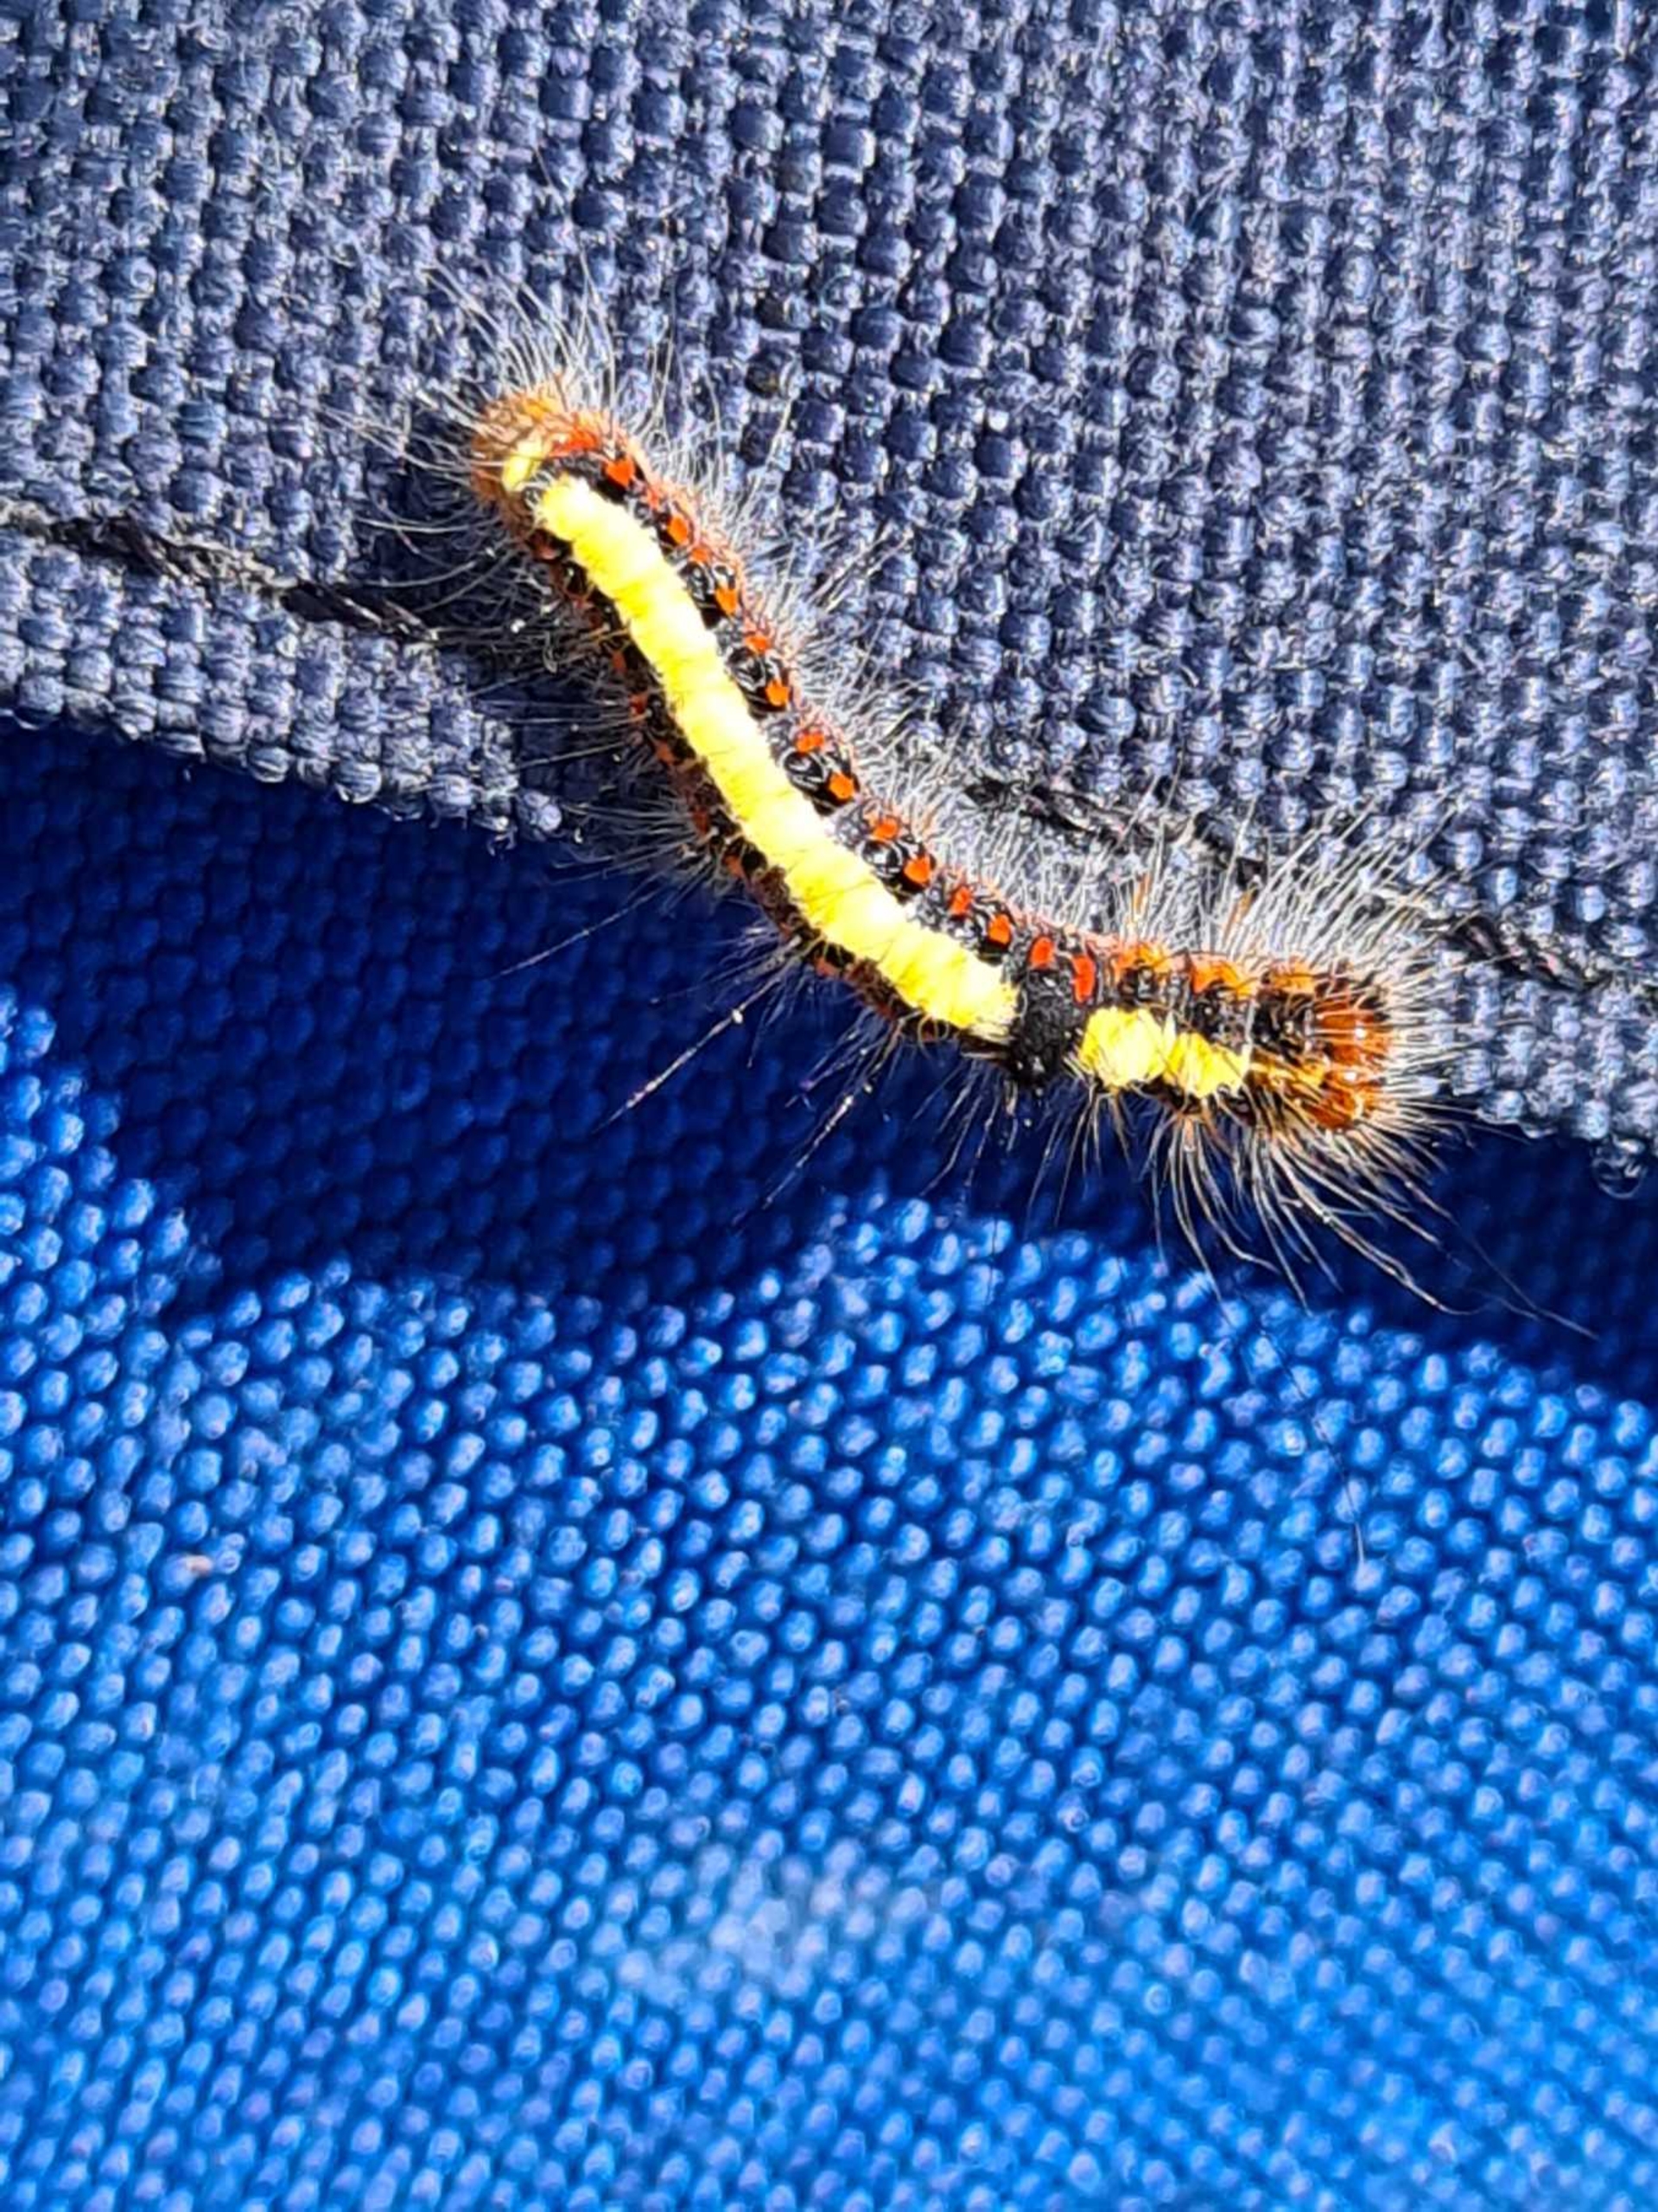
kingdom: Animalia
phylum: Arthropoda
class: Insecta
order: Lepidoptera
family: Noctuidae
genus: Acronicta
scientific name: Acronicta psi
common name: Psi-ugle
